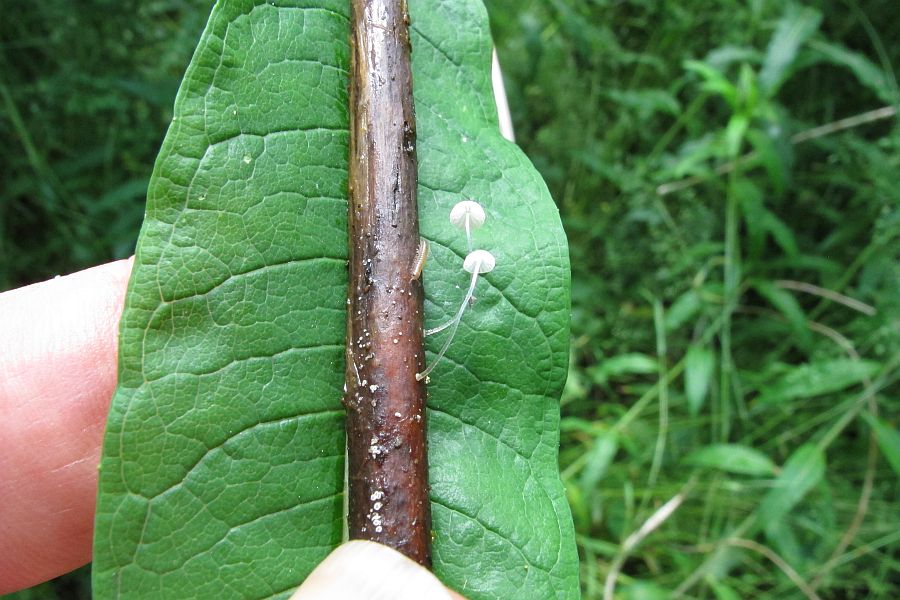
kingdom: Fungi
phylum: Basidiomycota
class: Agaricomycetes
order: Agaricales
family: Mycenaceae
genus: Mycena
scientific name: Mycena tenerrima
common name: pudret huesvamp
